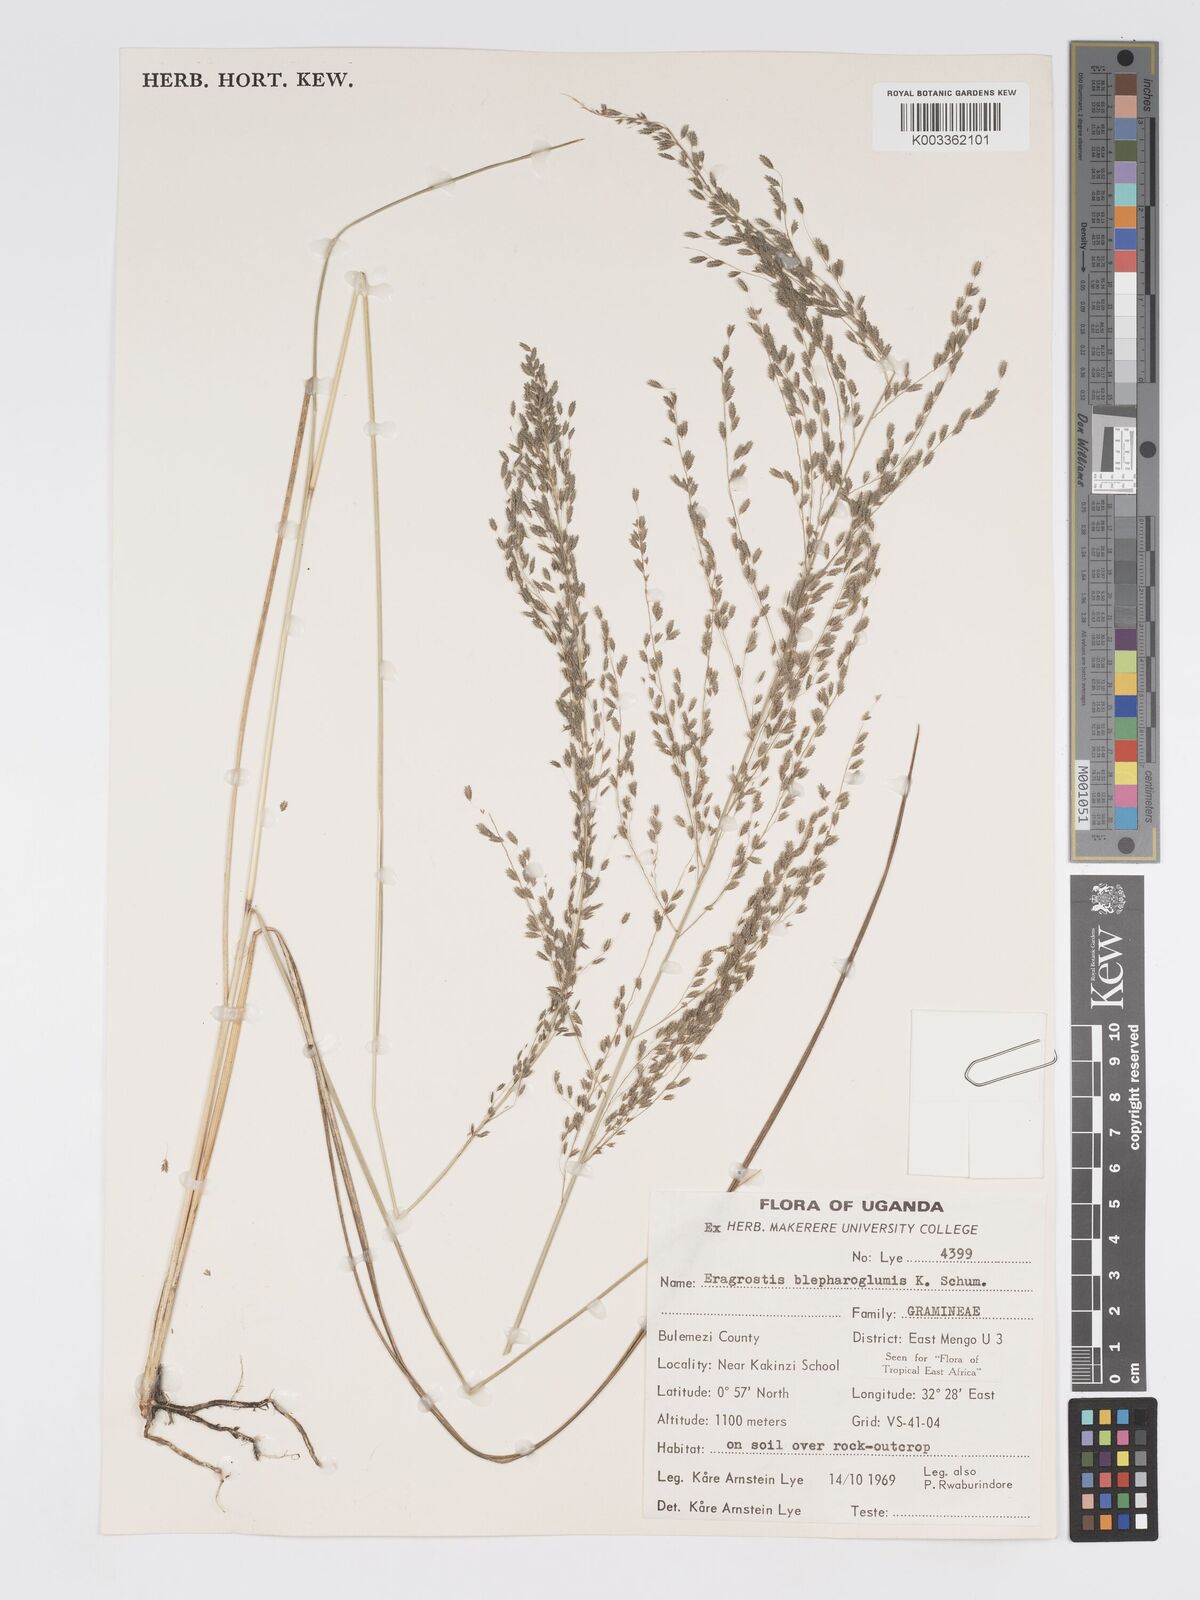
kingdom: Plantae
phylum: Tracheophyta
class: Liliopsida
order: Poales
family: Poaceae
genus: Eragrostis
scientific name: Eragrostis olivacea
